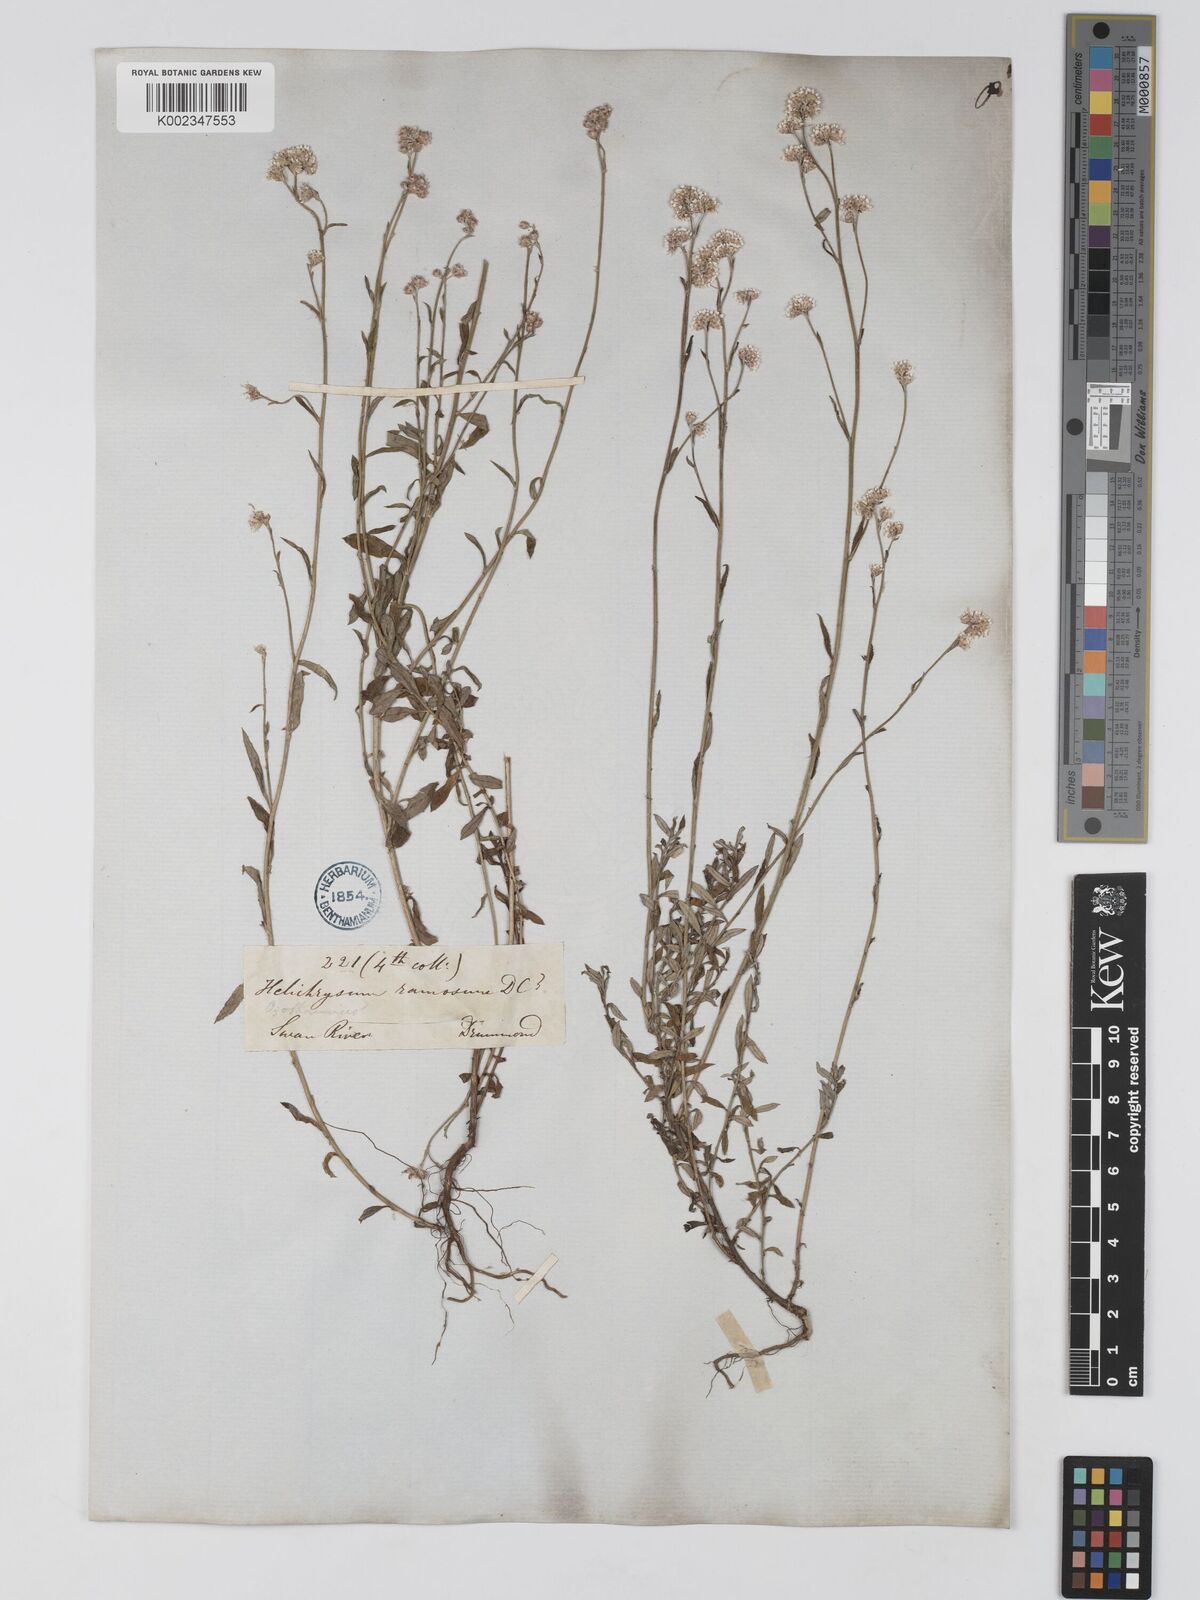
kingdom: Plantae
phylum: Tracheophyta
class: Magnoliopsida
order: Asterales
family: Asteraceae
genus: Pithocarpa
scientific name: Pithocarpa ramosa
